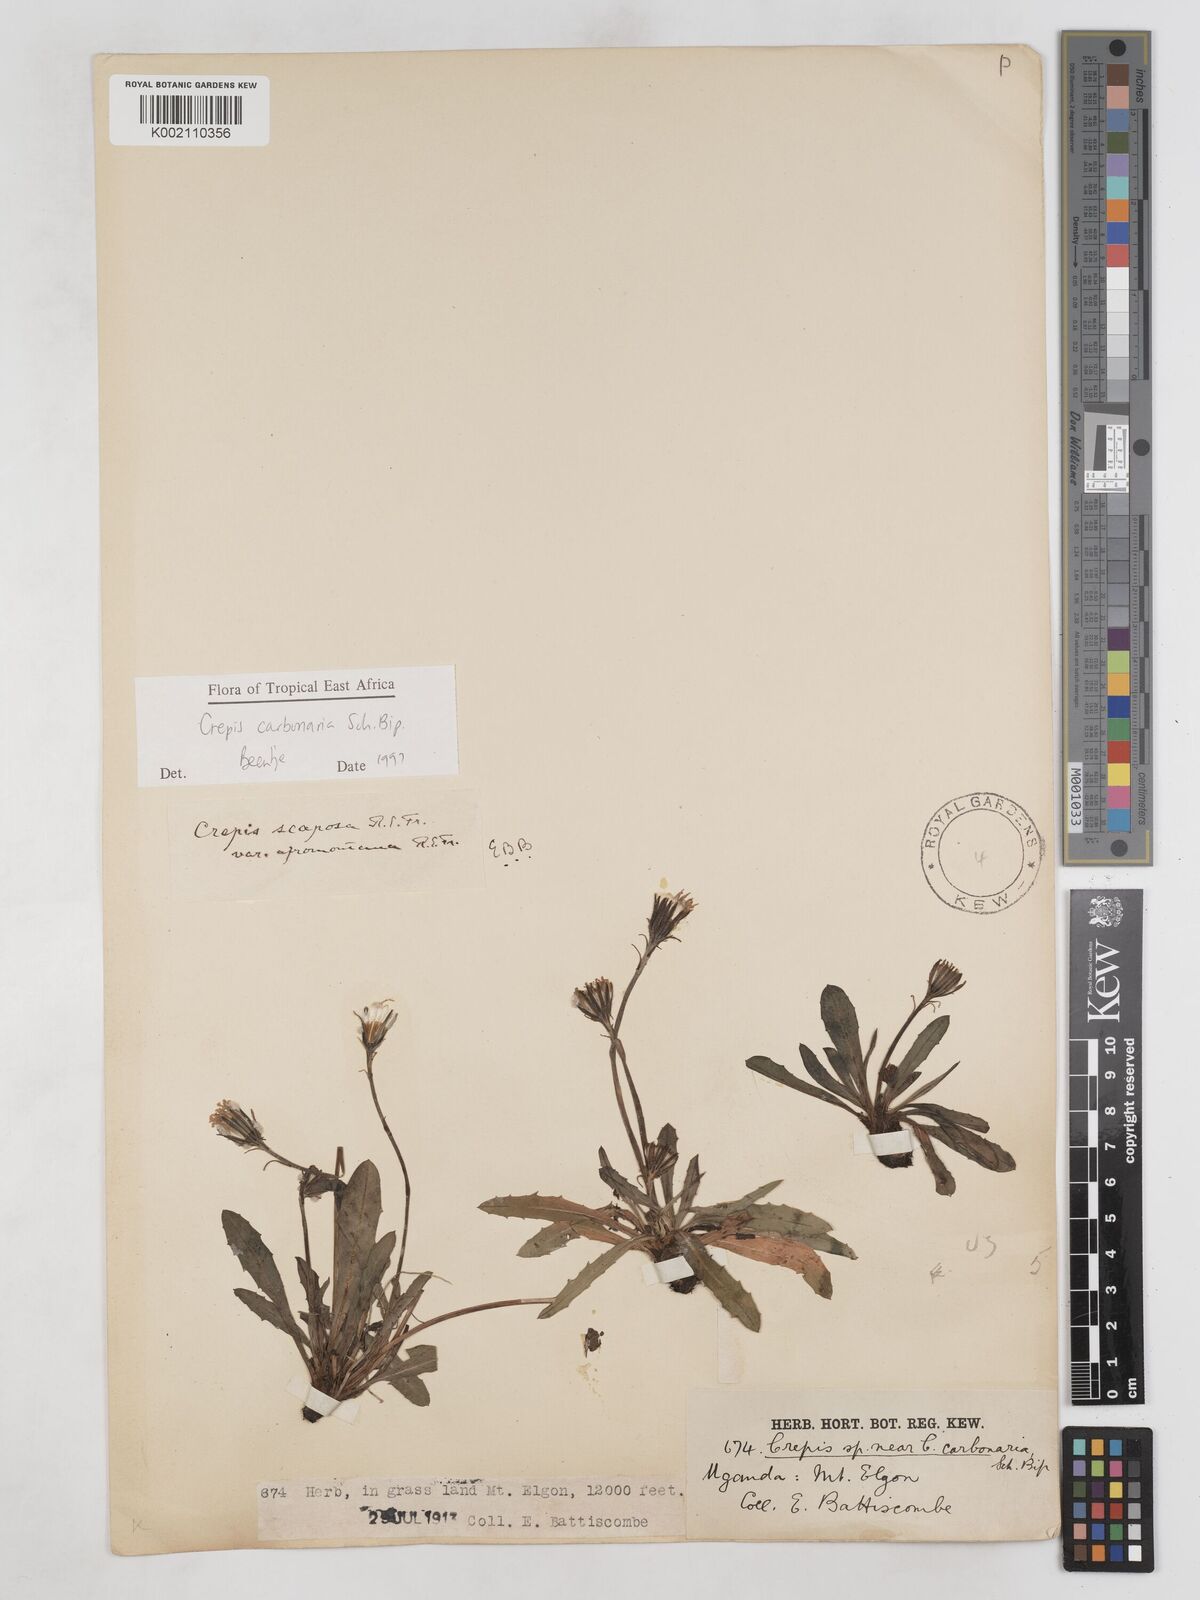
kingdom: Plantae
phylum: Tracheophyta
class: Magnoliopsida
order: Asterales
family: Asteraceae
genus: Crepis
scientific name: Crepis carbonaria
